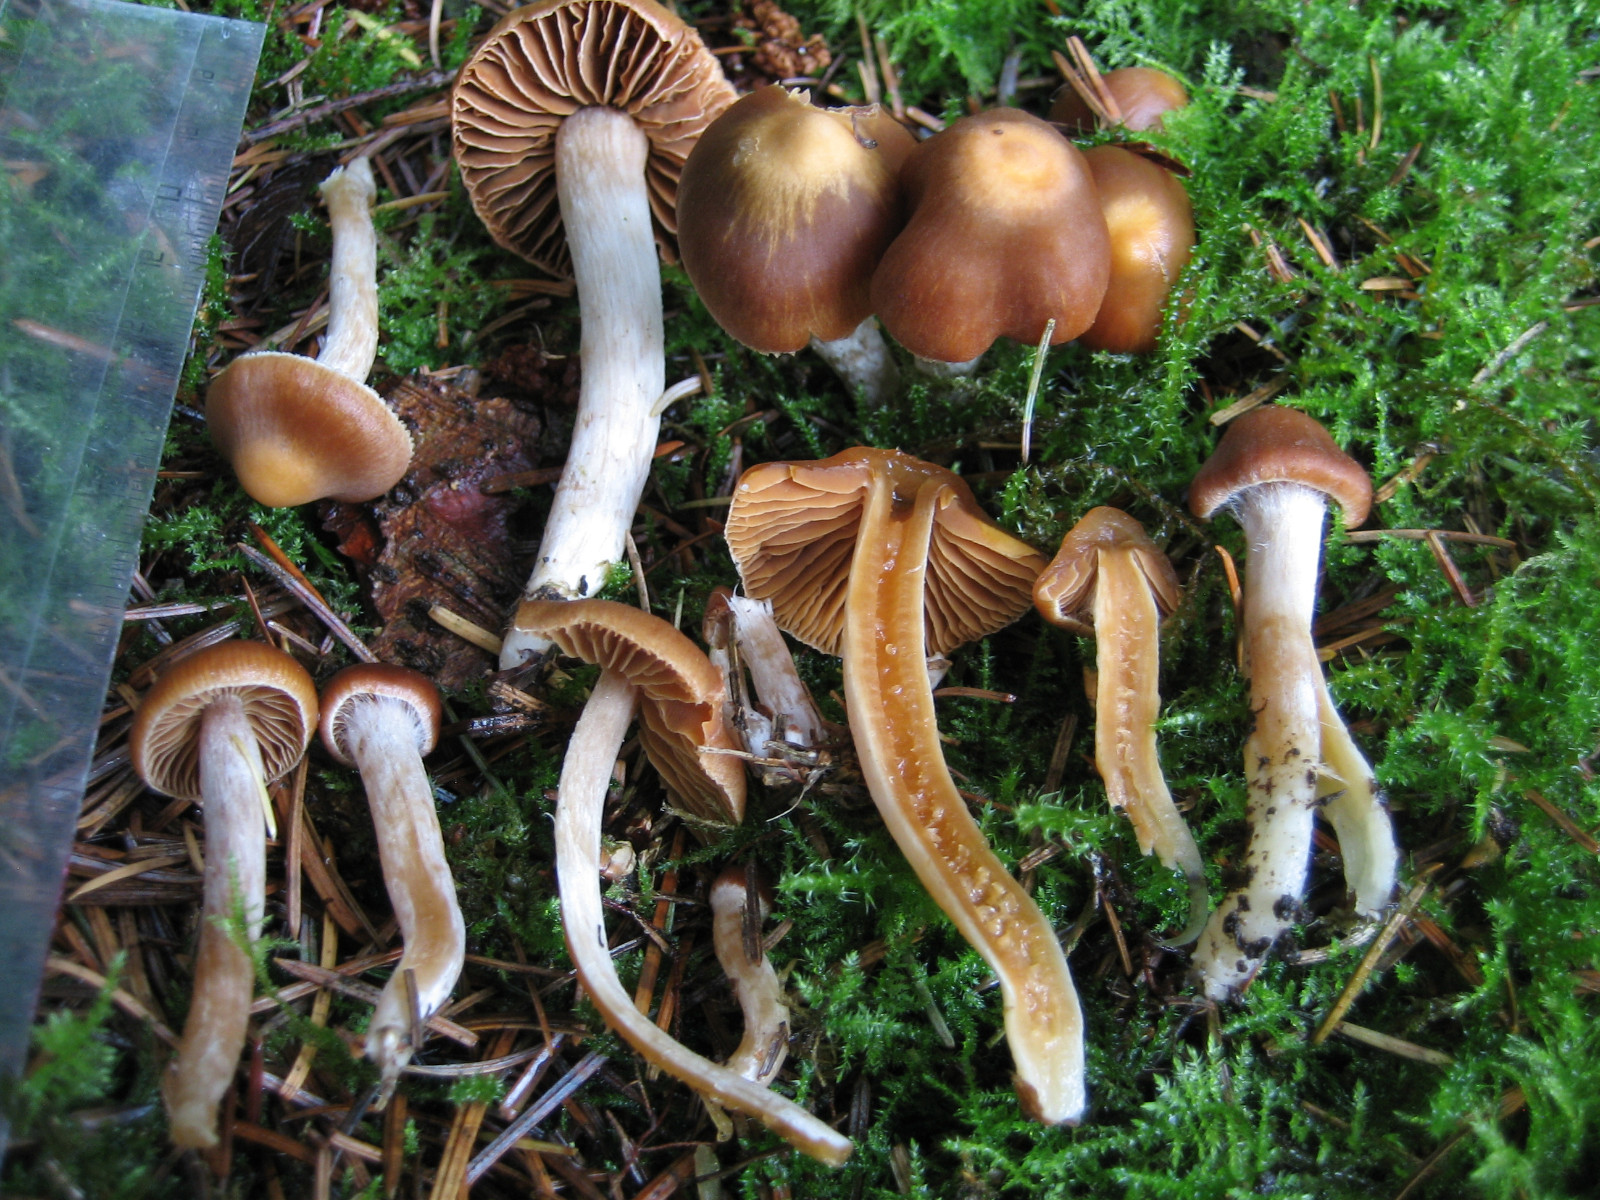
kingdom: Fungi
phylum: Basidiomycota
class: Agaricomycetes
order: Agaricales
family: Cortinariaceae
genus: Cortinarius
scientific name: Cortinarius pallidostriatoides
